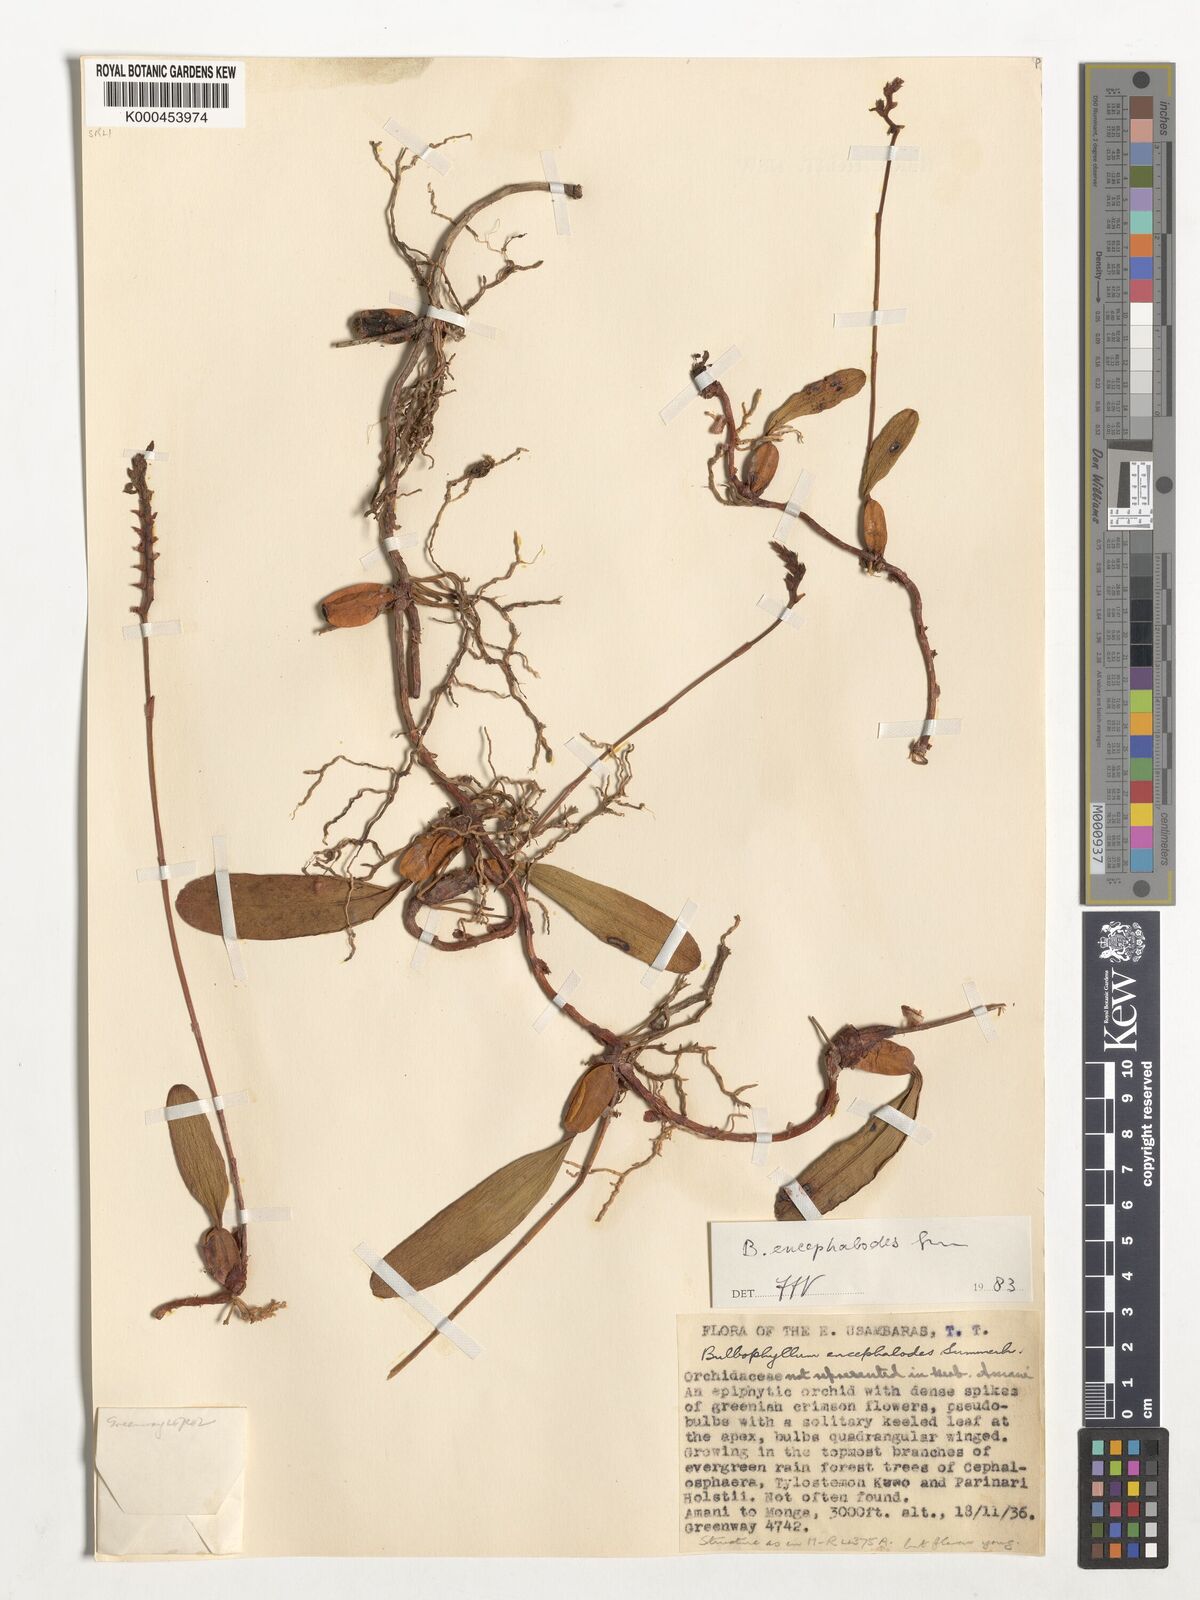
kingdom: Plantae
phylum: Tracheophyta
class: Liliopsida
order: Asparagales
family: Orchidaceae
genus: Bulbophyllum
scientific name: Bulbophyllum encephalodes
